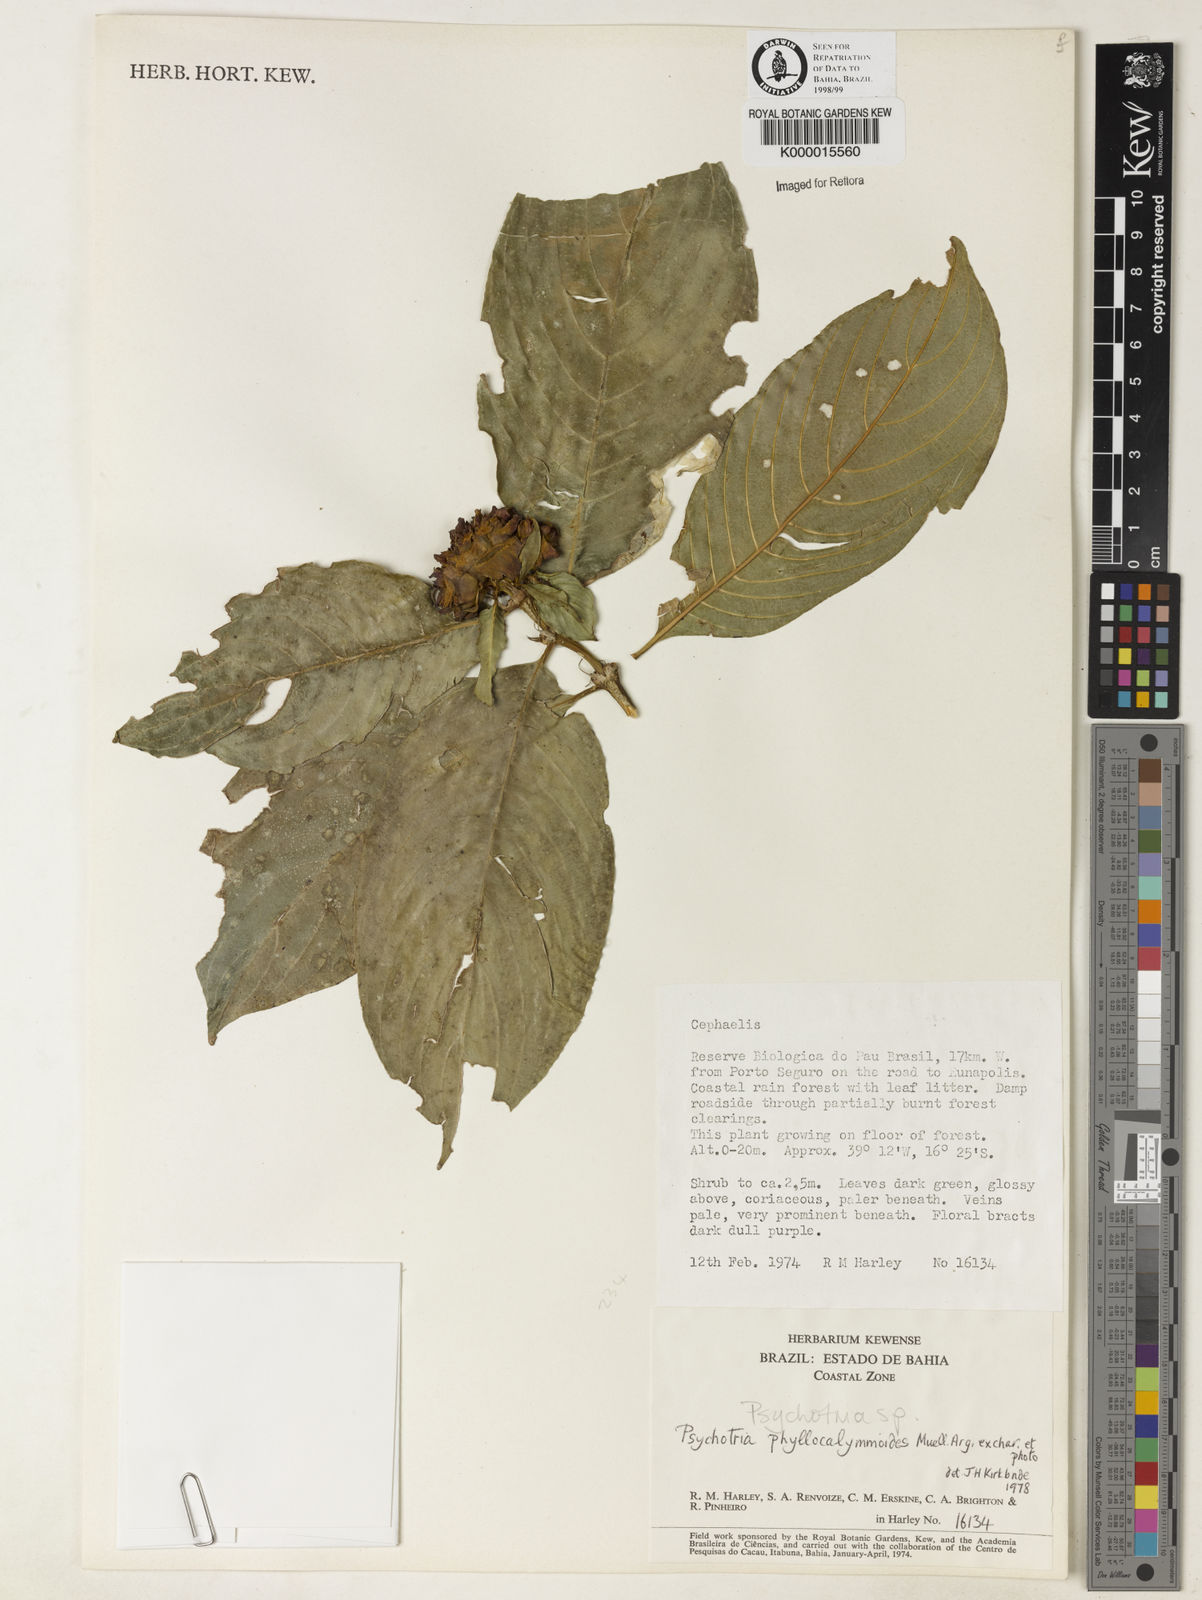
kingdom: Plantae
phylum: Tracheophyta
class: Magnoliopsida
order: Gentianales
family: Rubiaceae
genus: Psychotria
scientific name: Psychotria phyllocalymmoides
